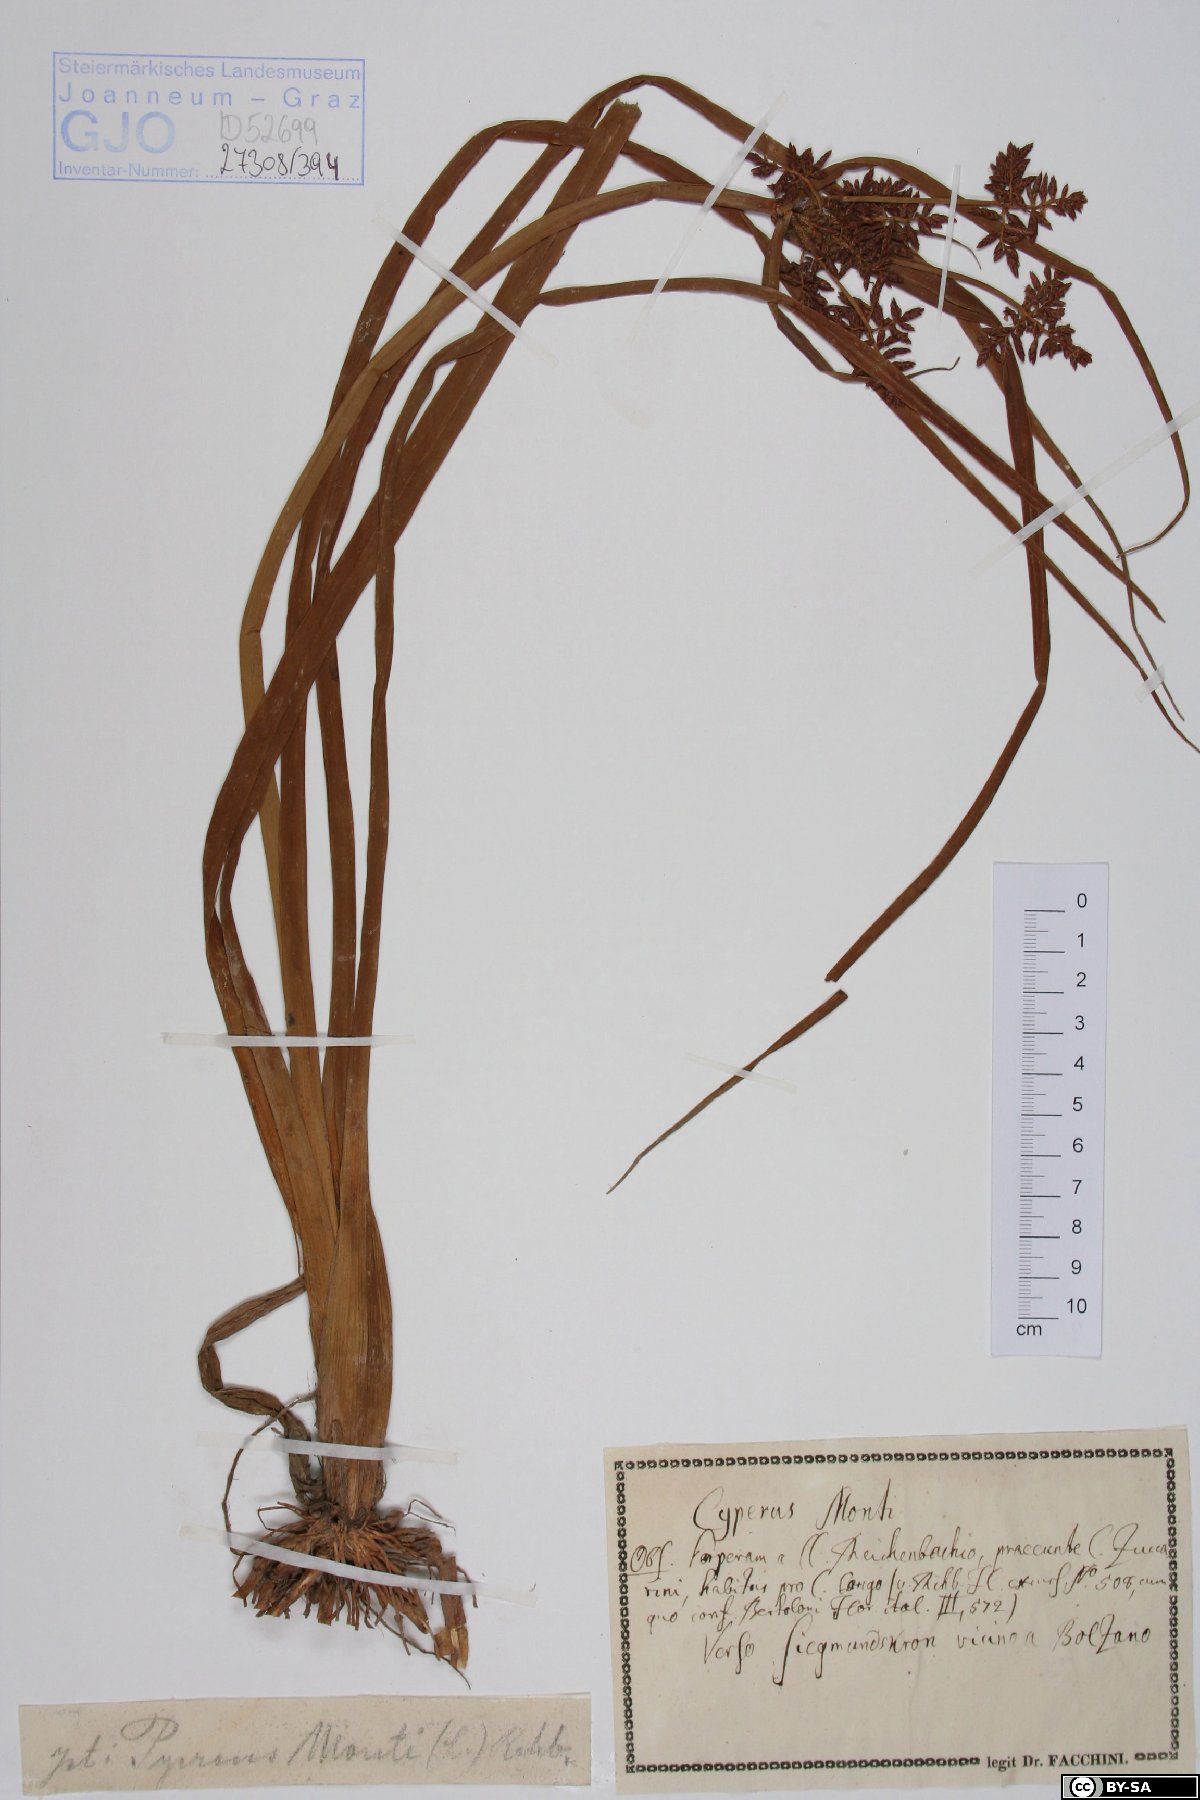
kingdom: Plantae
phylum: Tracheophyta
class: Liliopsida
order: Poales
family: Cyperaceae
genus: Cyperus
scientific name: Cyperus serotinus
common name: Tidalmarsh flatsedge
